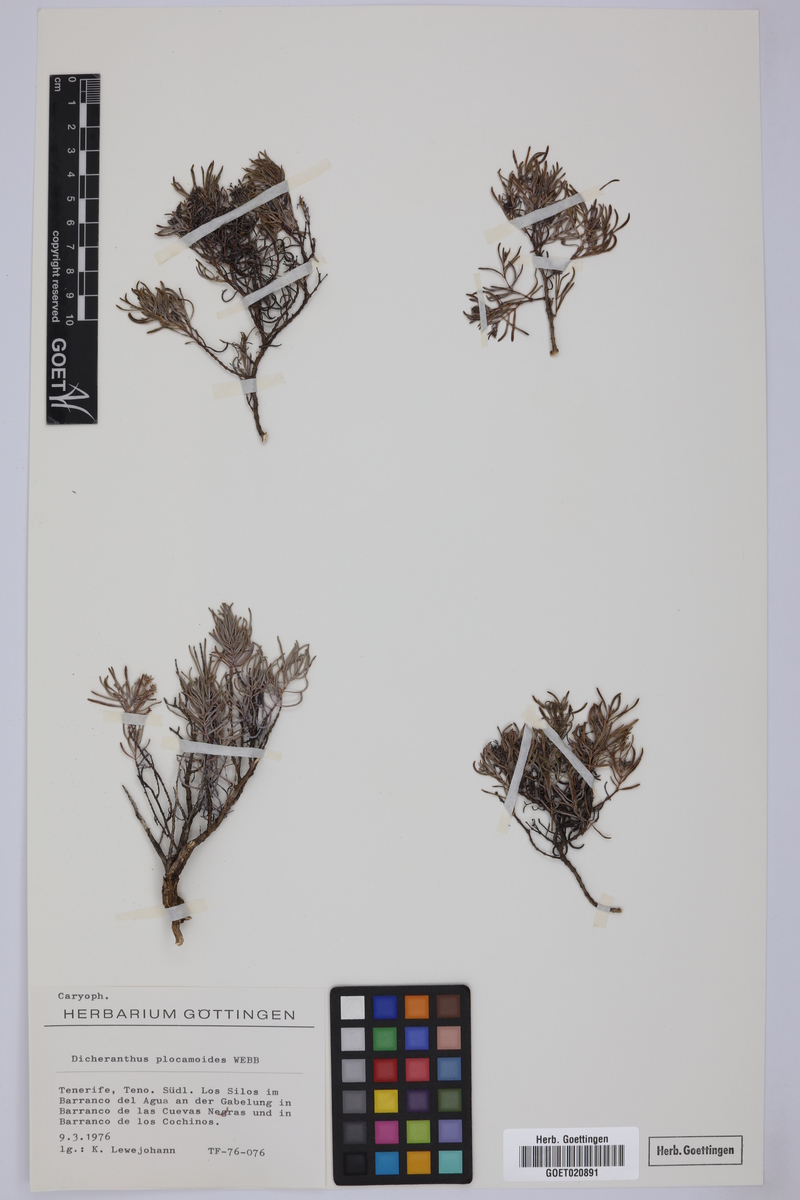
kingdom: Plantae
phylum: Tracheophyta
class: Magnoliopsida
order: Caryophyllales
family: Caryophyllaceae
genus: Dicheranthus
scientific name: Dicheranthus plocamoides
